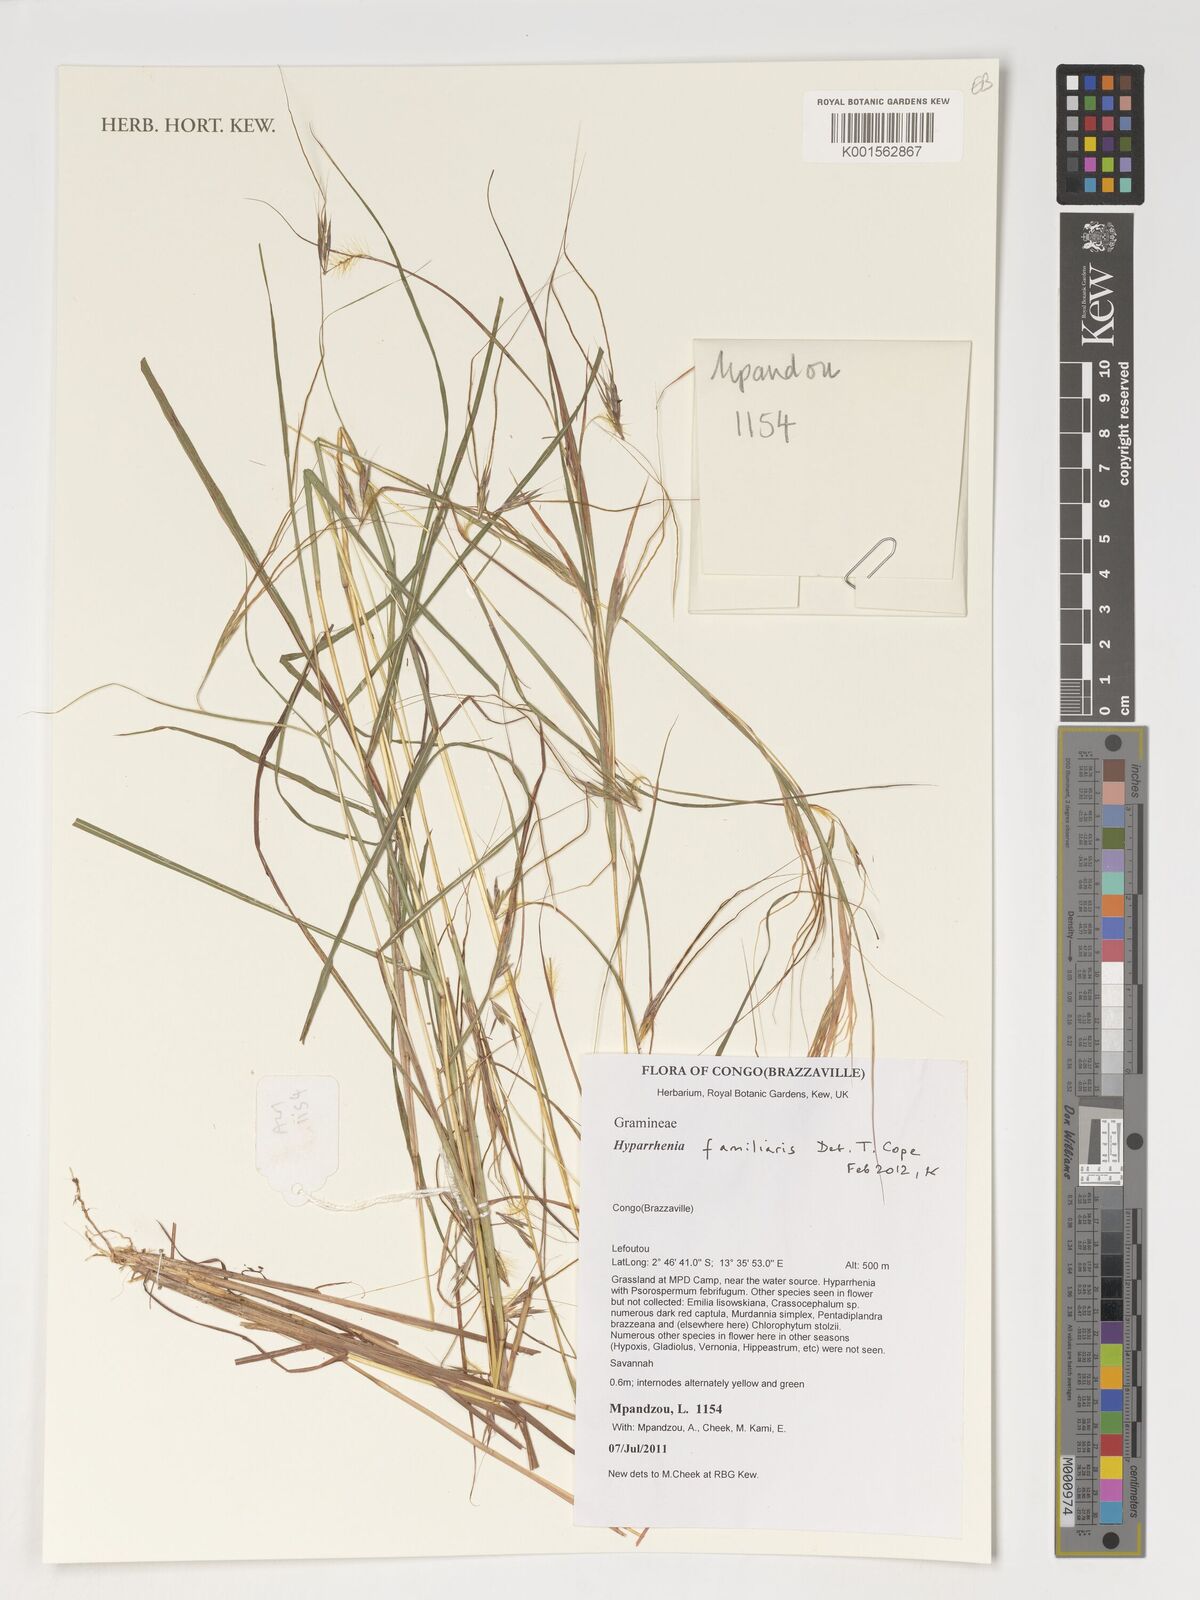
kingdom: Plantae
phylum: Tracheophyta
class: Liliopsida
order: Poales
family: Poaceae
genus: Hyparrhenia
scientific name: Hyparrhenia familiaris
